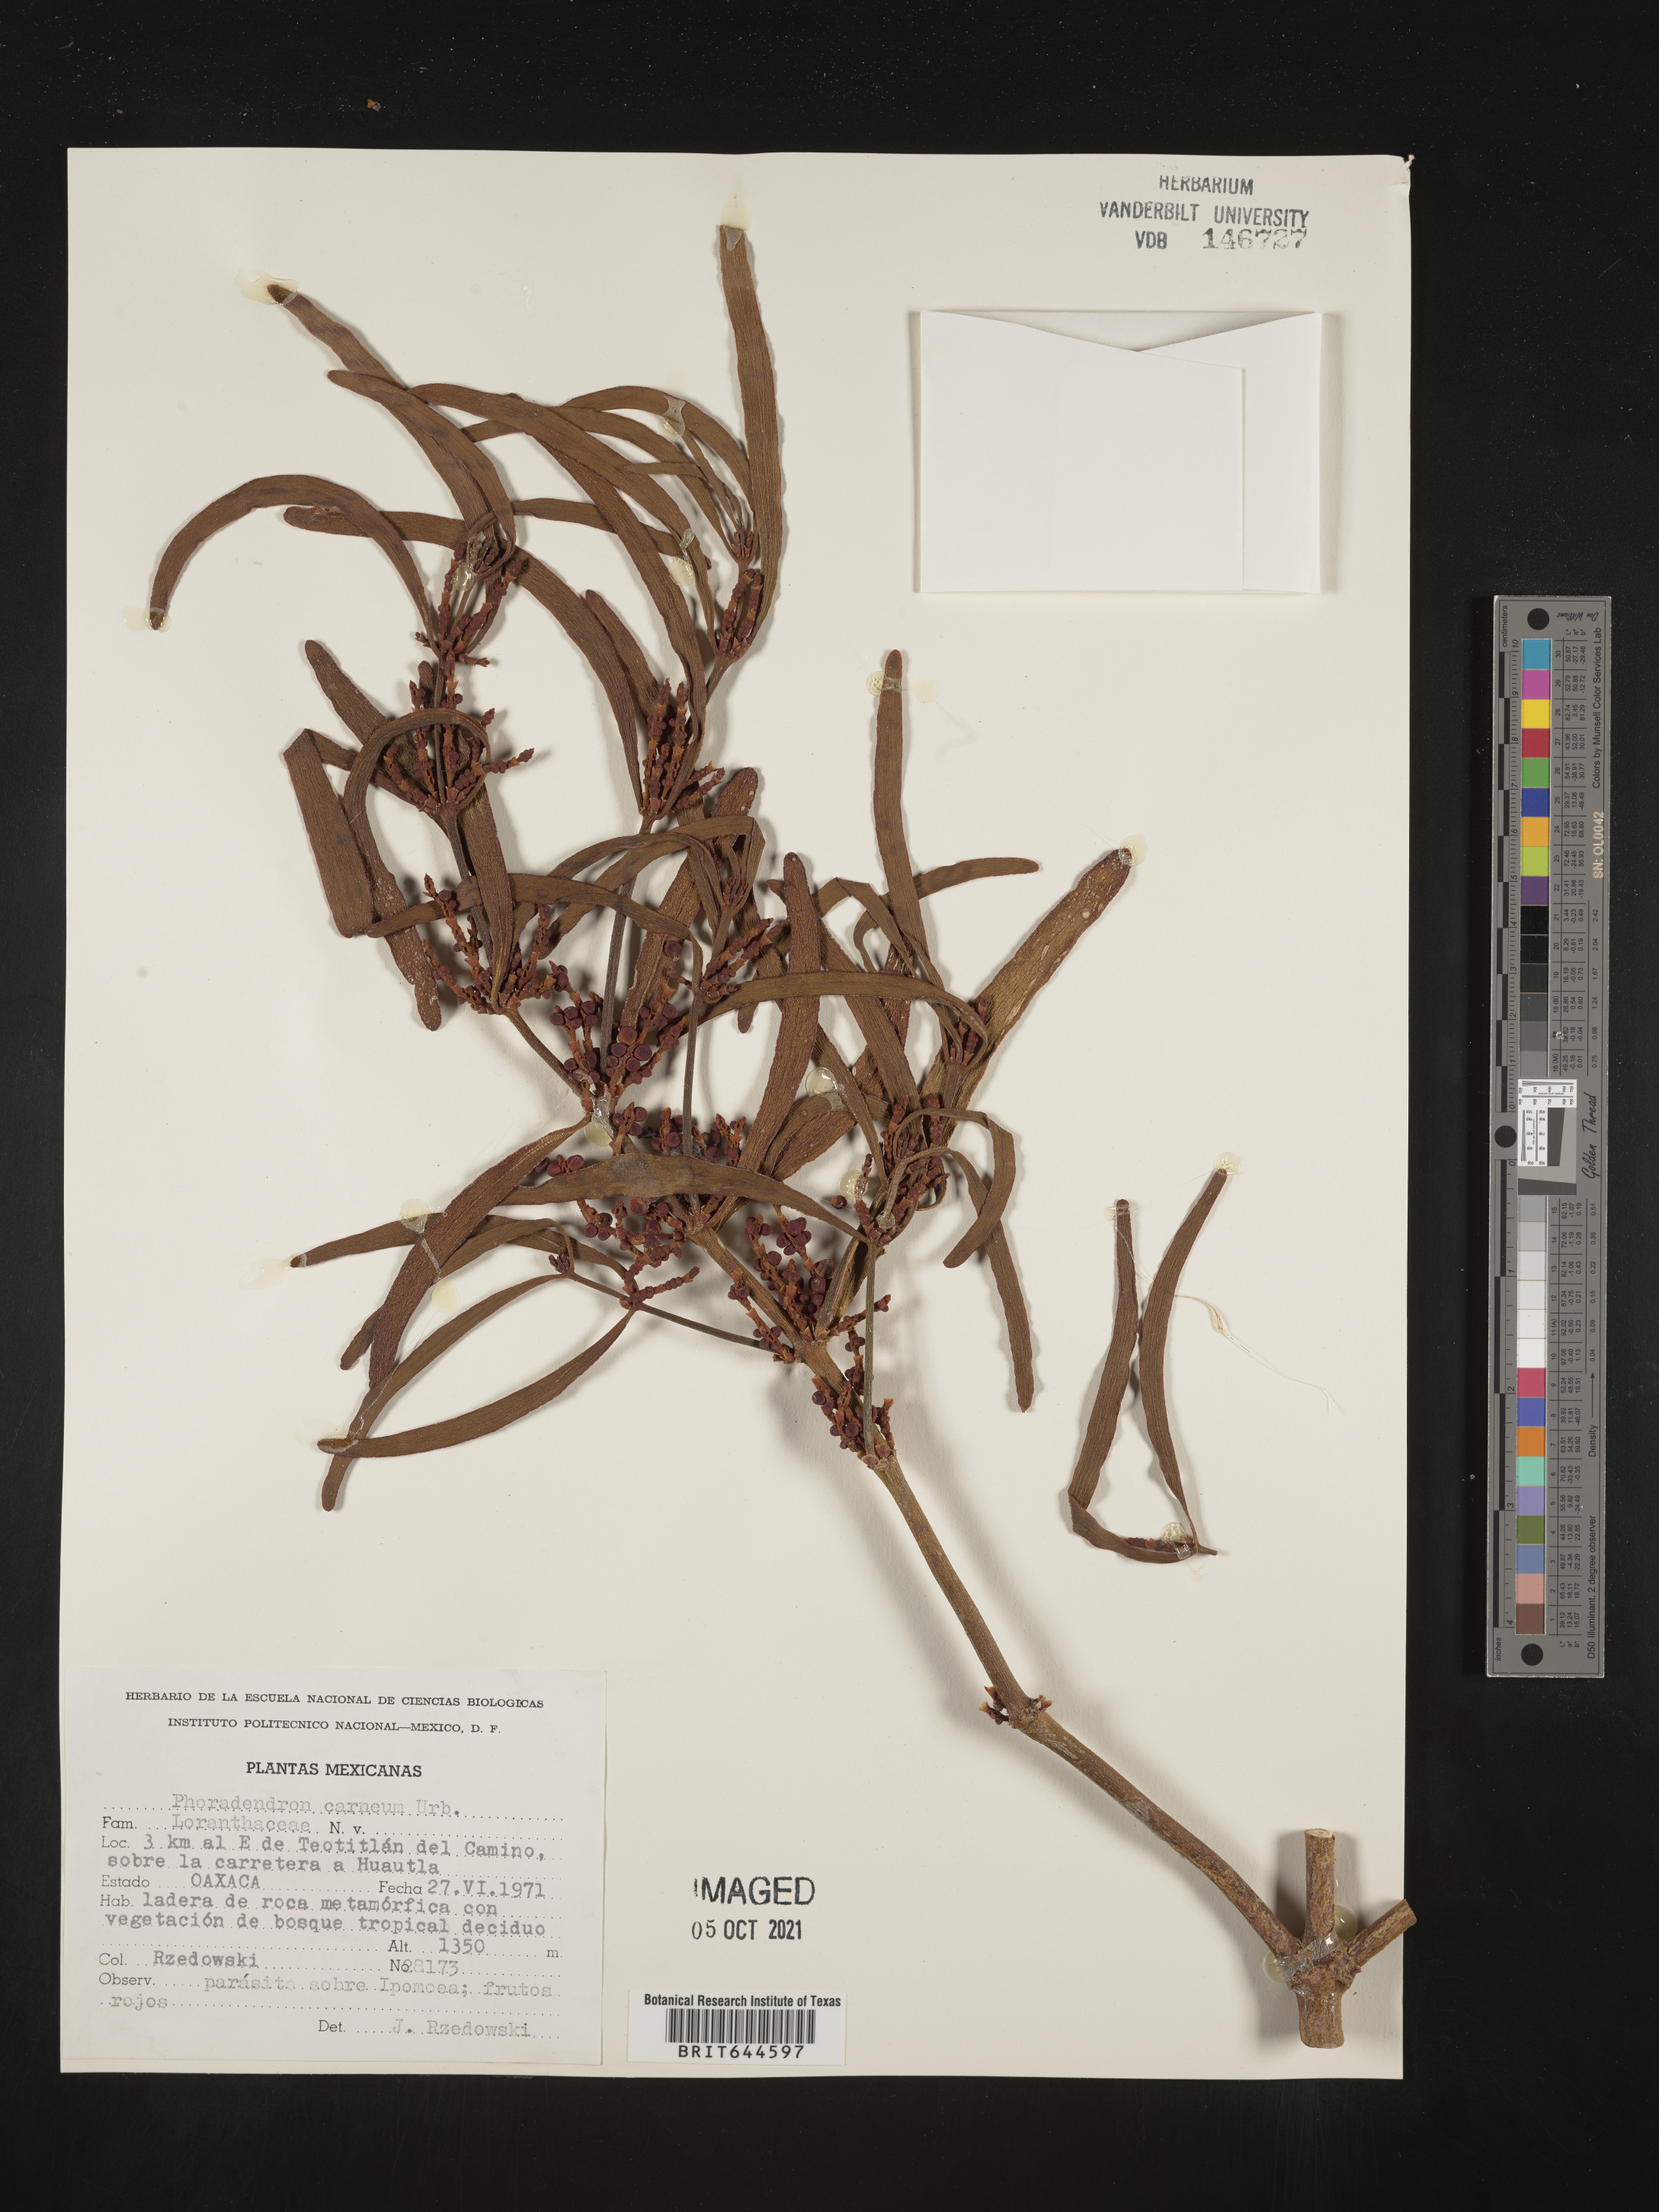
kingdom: Plantae
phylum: Tracheophyta
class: Magnoliopsida
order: Santalales
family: Viscaceae
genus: Phoradendron
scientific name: Phoradendron
